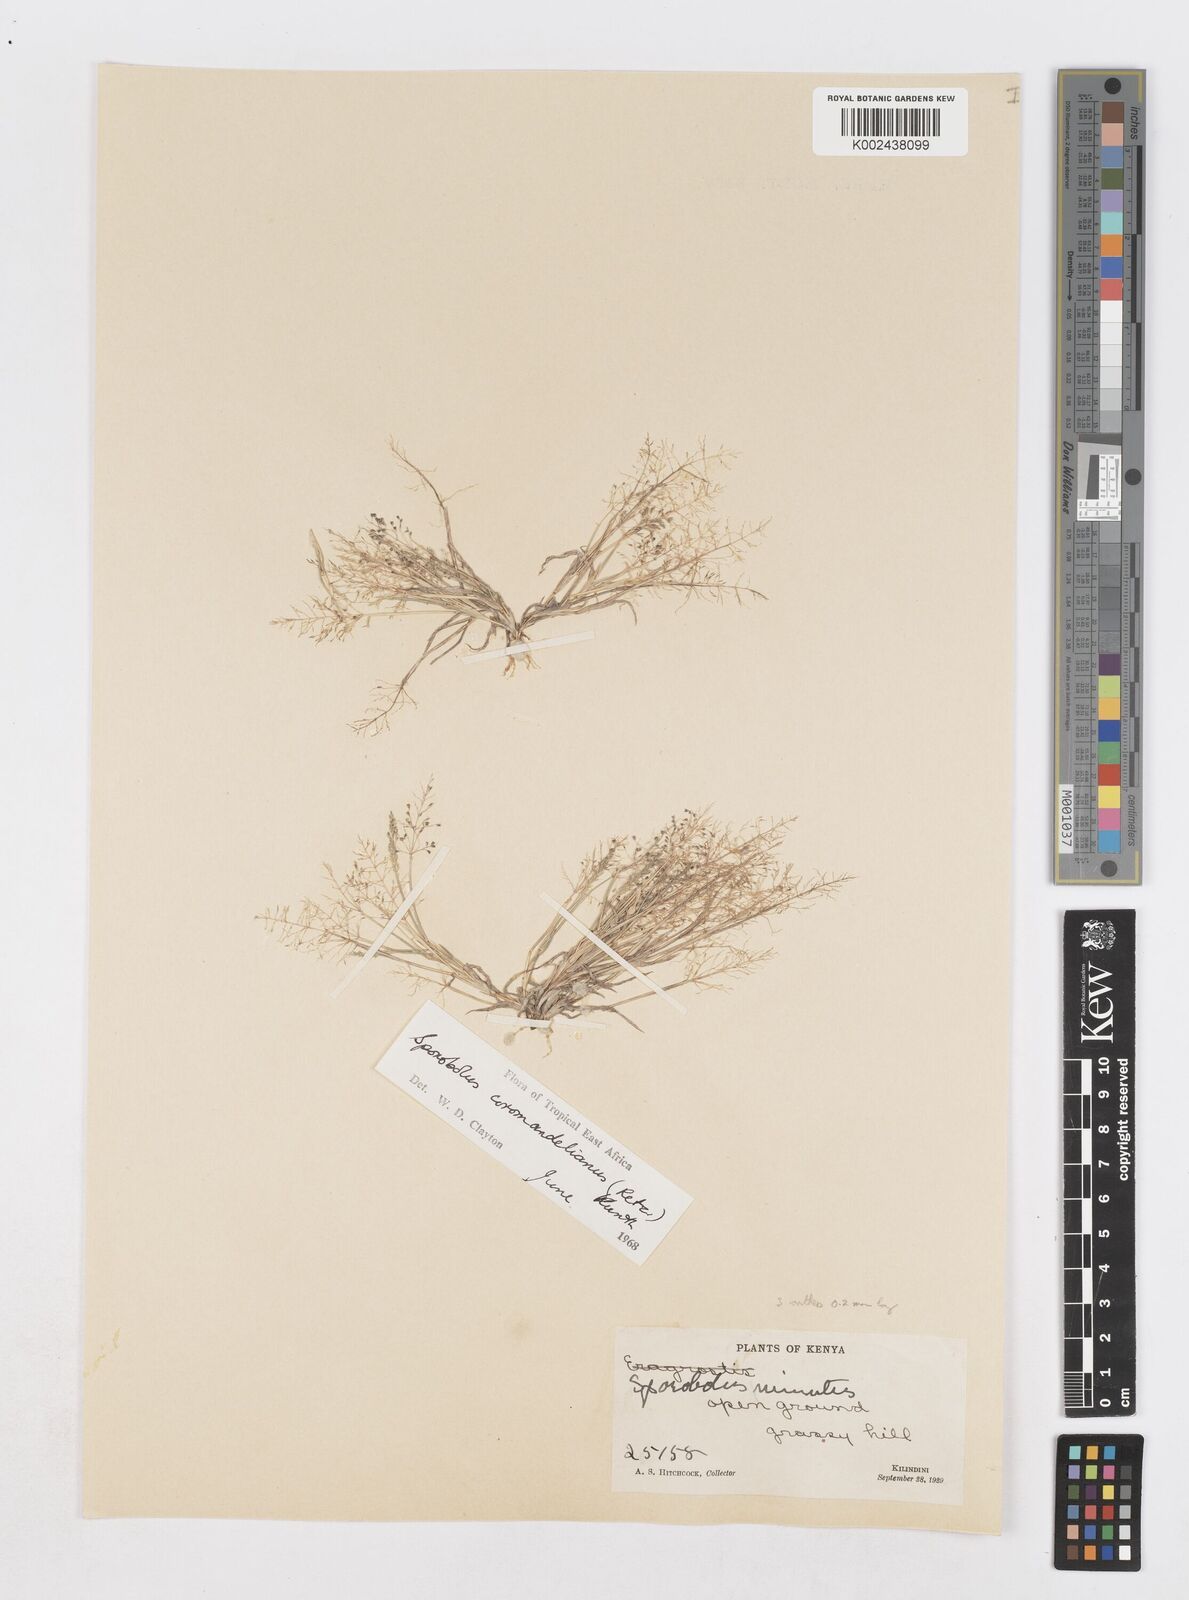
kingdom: Plantae
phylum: Tracheophyta
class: Liliopsida
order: Poales
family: Poaceae
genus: Sporobolus
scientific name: Sporobolus coromandelianus
